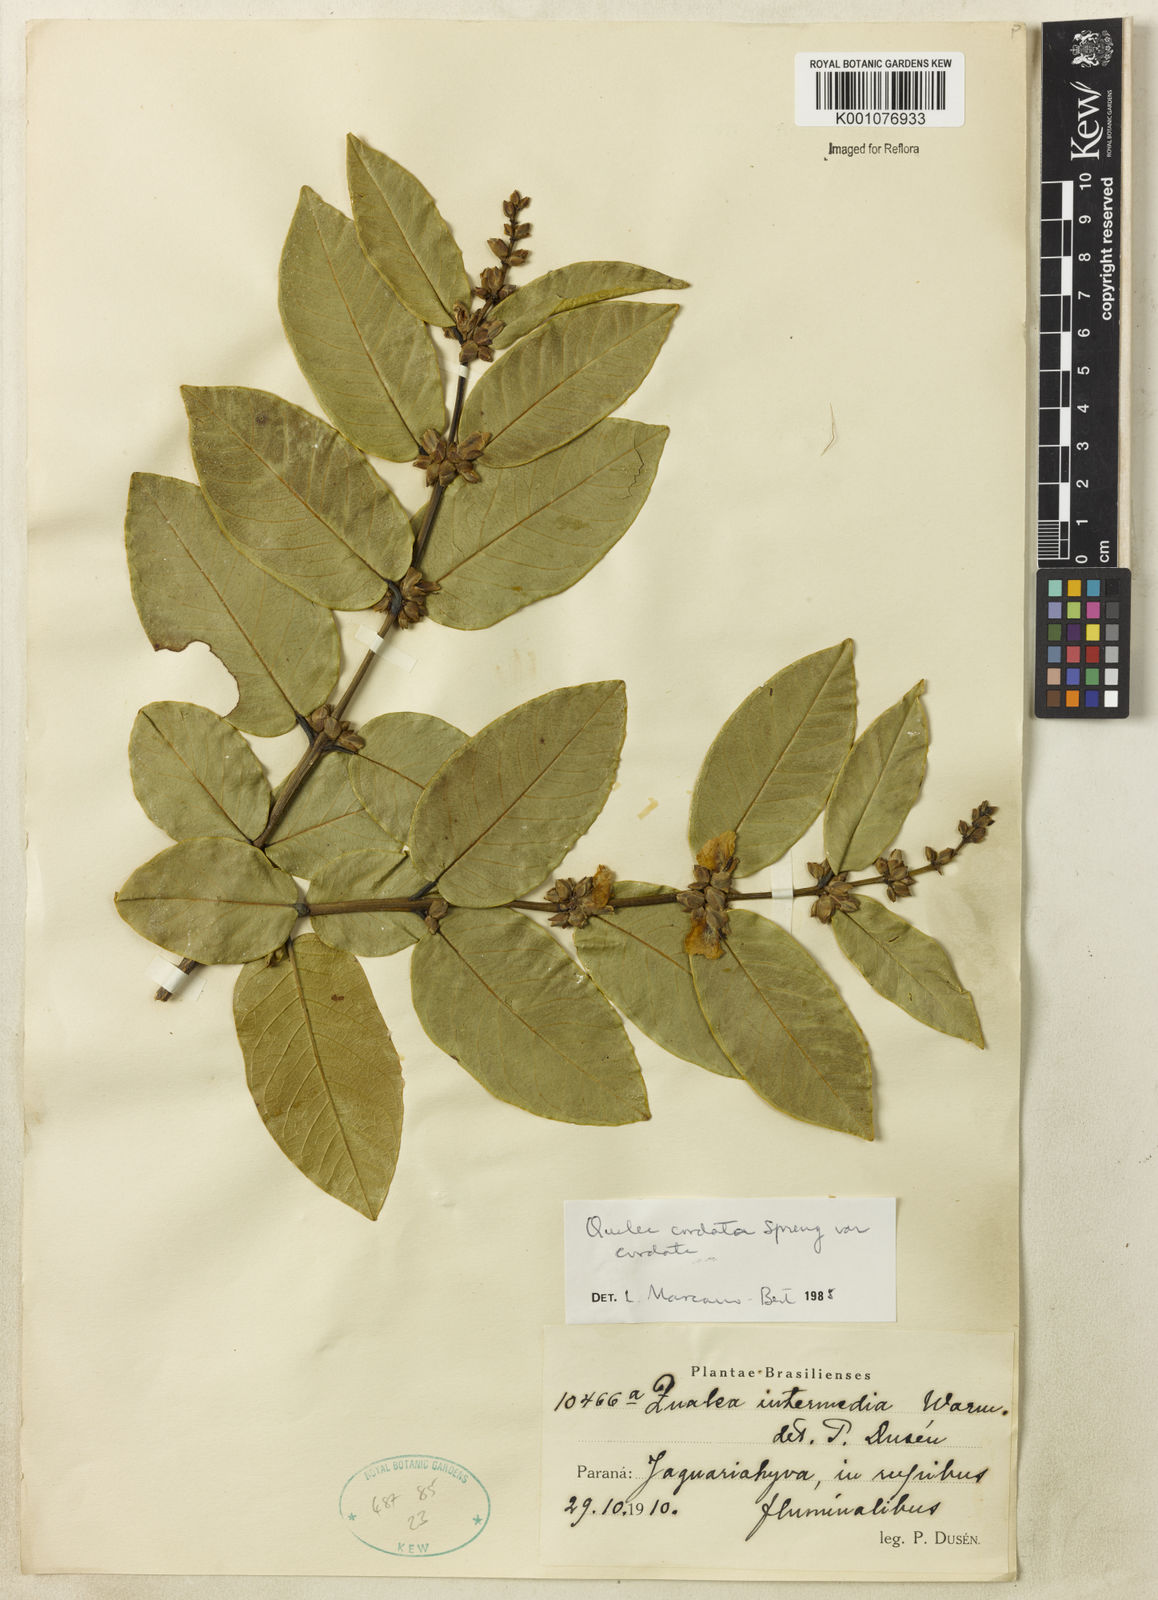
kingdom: Plantae
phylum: Tracheophyta
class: Magnoliopsida
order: Myrtales
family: Vochysiaceae
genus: Qualea
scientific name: Qualea cordata
